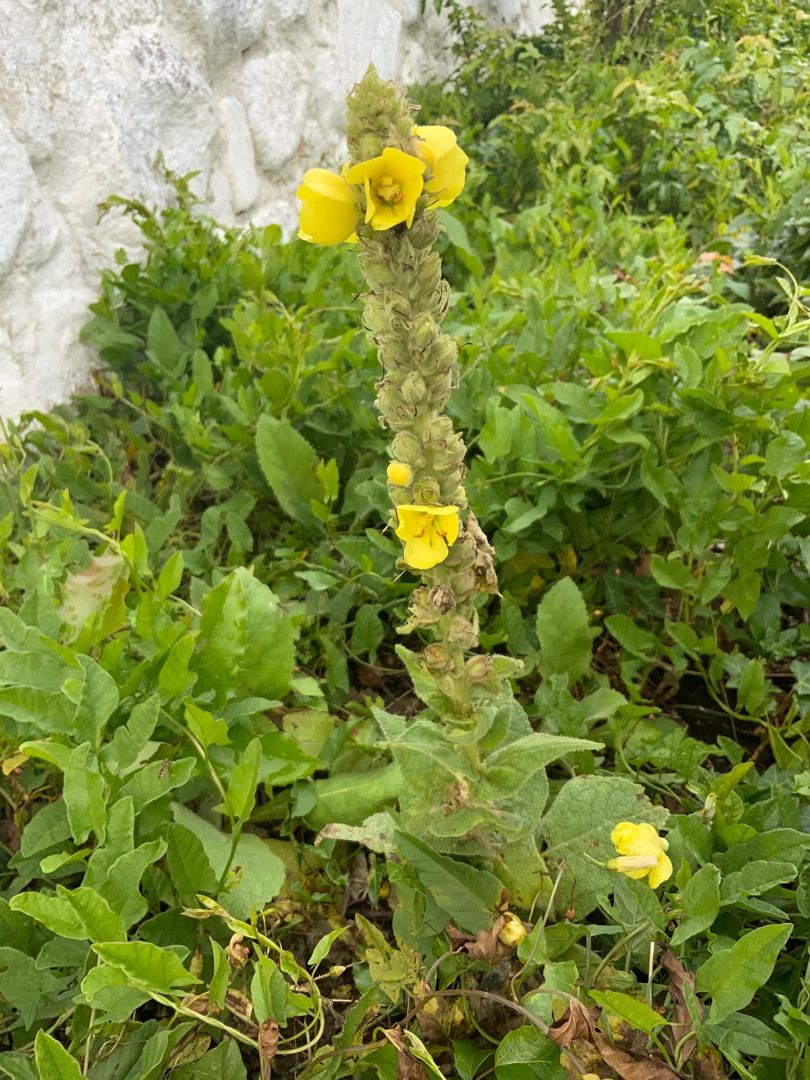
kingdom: Plantae
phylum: Tracheophyta
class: Magnoliopsida
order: Lamiales
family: Scrophulariaceae
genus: Verbascum
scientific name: Verbascum densiflorum
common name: Uldbladet kongelys
